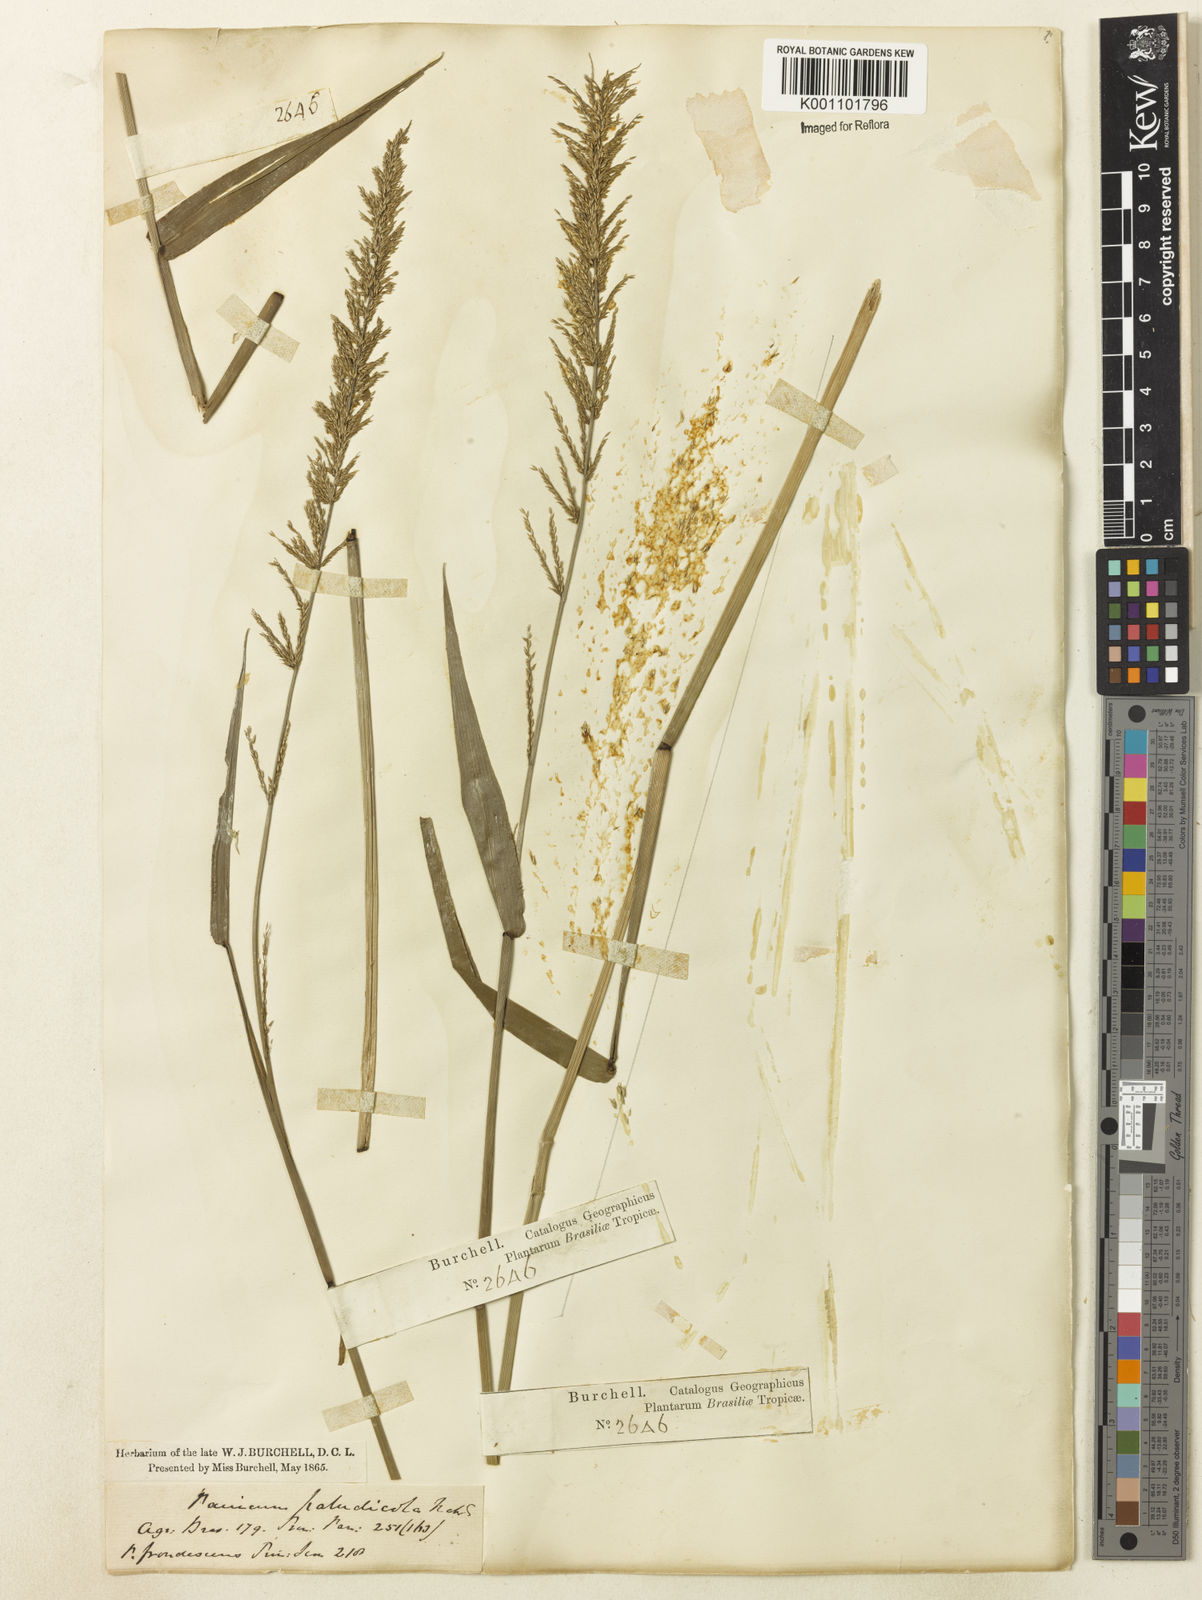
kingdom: Plantae
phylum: Tracheophyta
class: Liliopsida
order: Poales
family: Poaceae
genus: Hymenachne
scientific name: Hymenachne condensata
